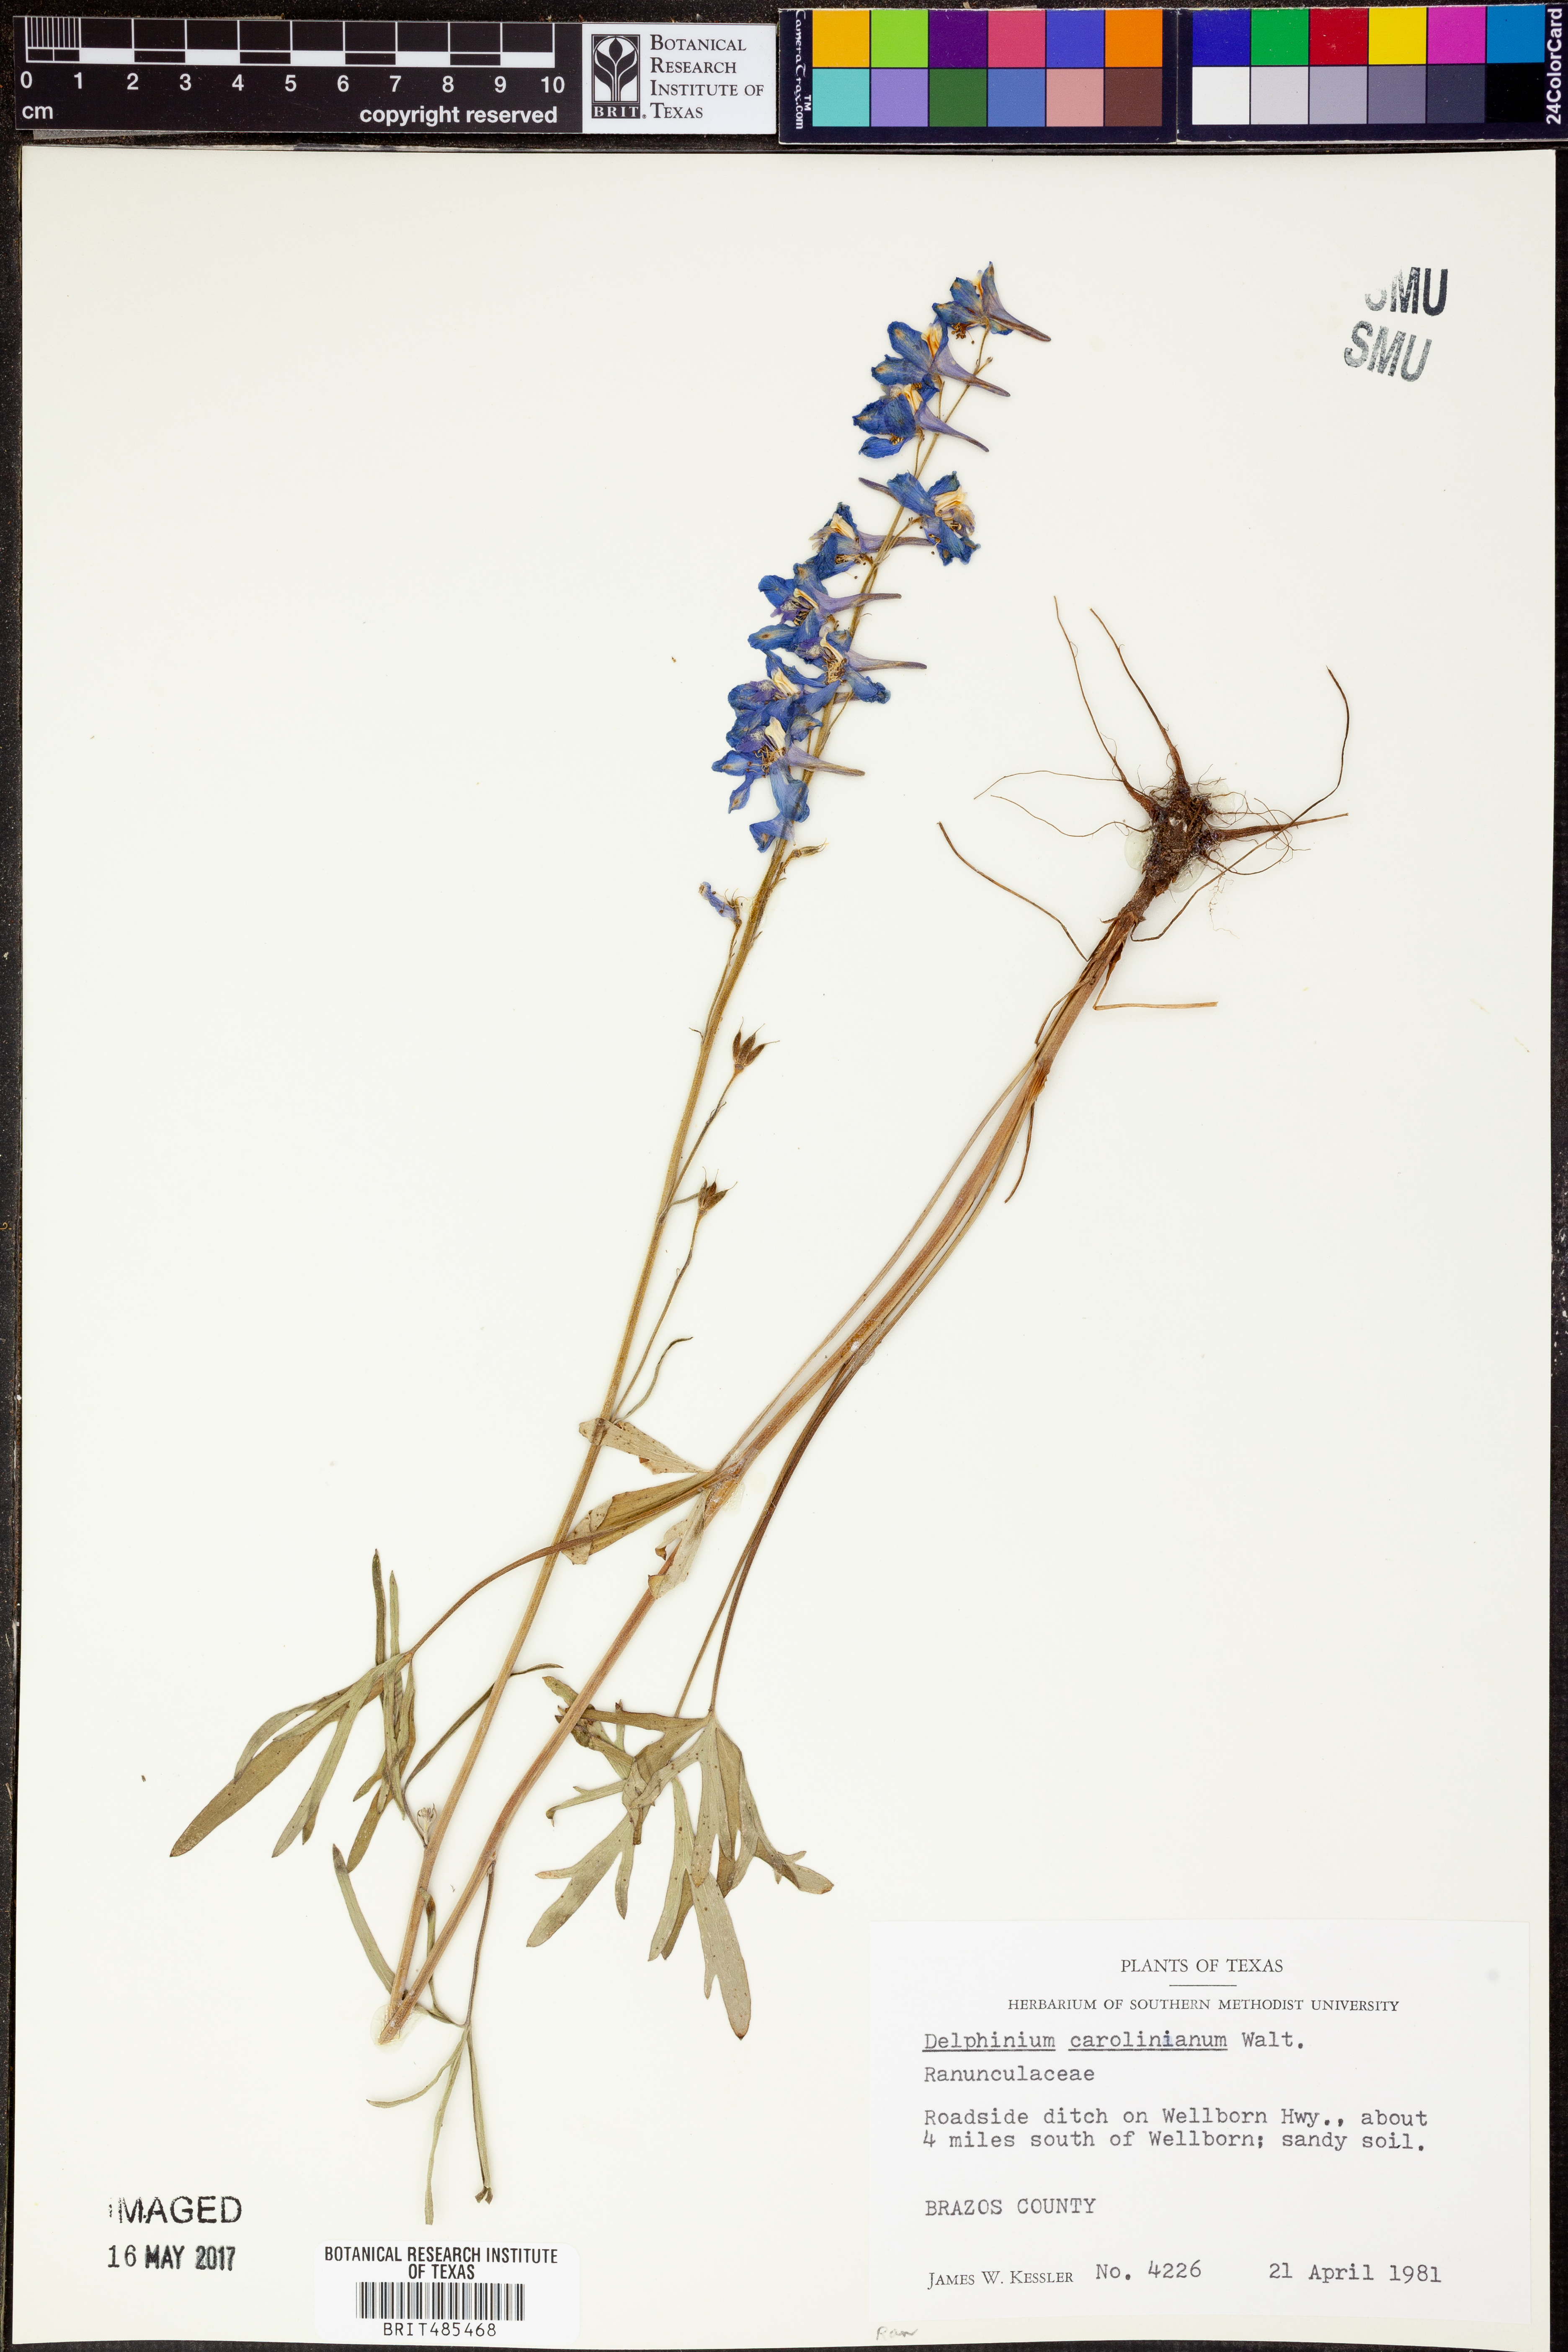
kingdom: Plantae
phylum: Tracheophyta
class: Magnoliopsida
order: Ranunculales
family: Ranunculaceae
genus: Delphinium
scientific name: Delphinium carolinianum
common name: Carolina larkspur
